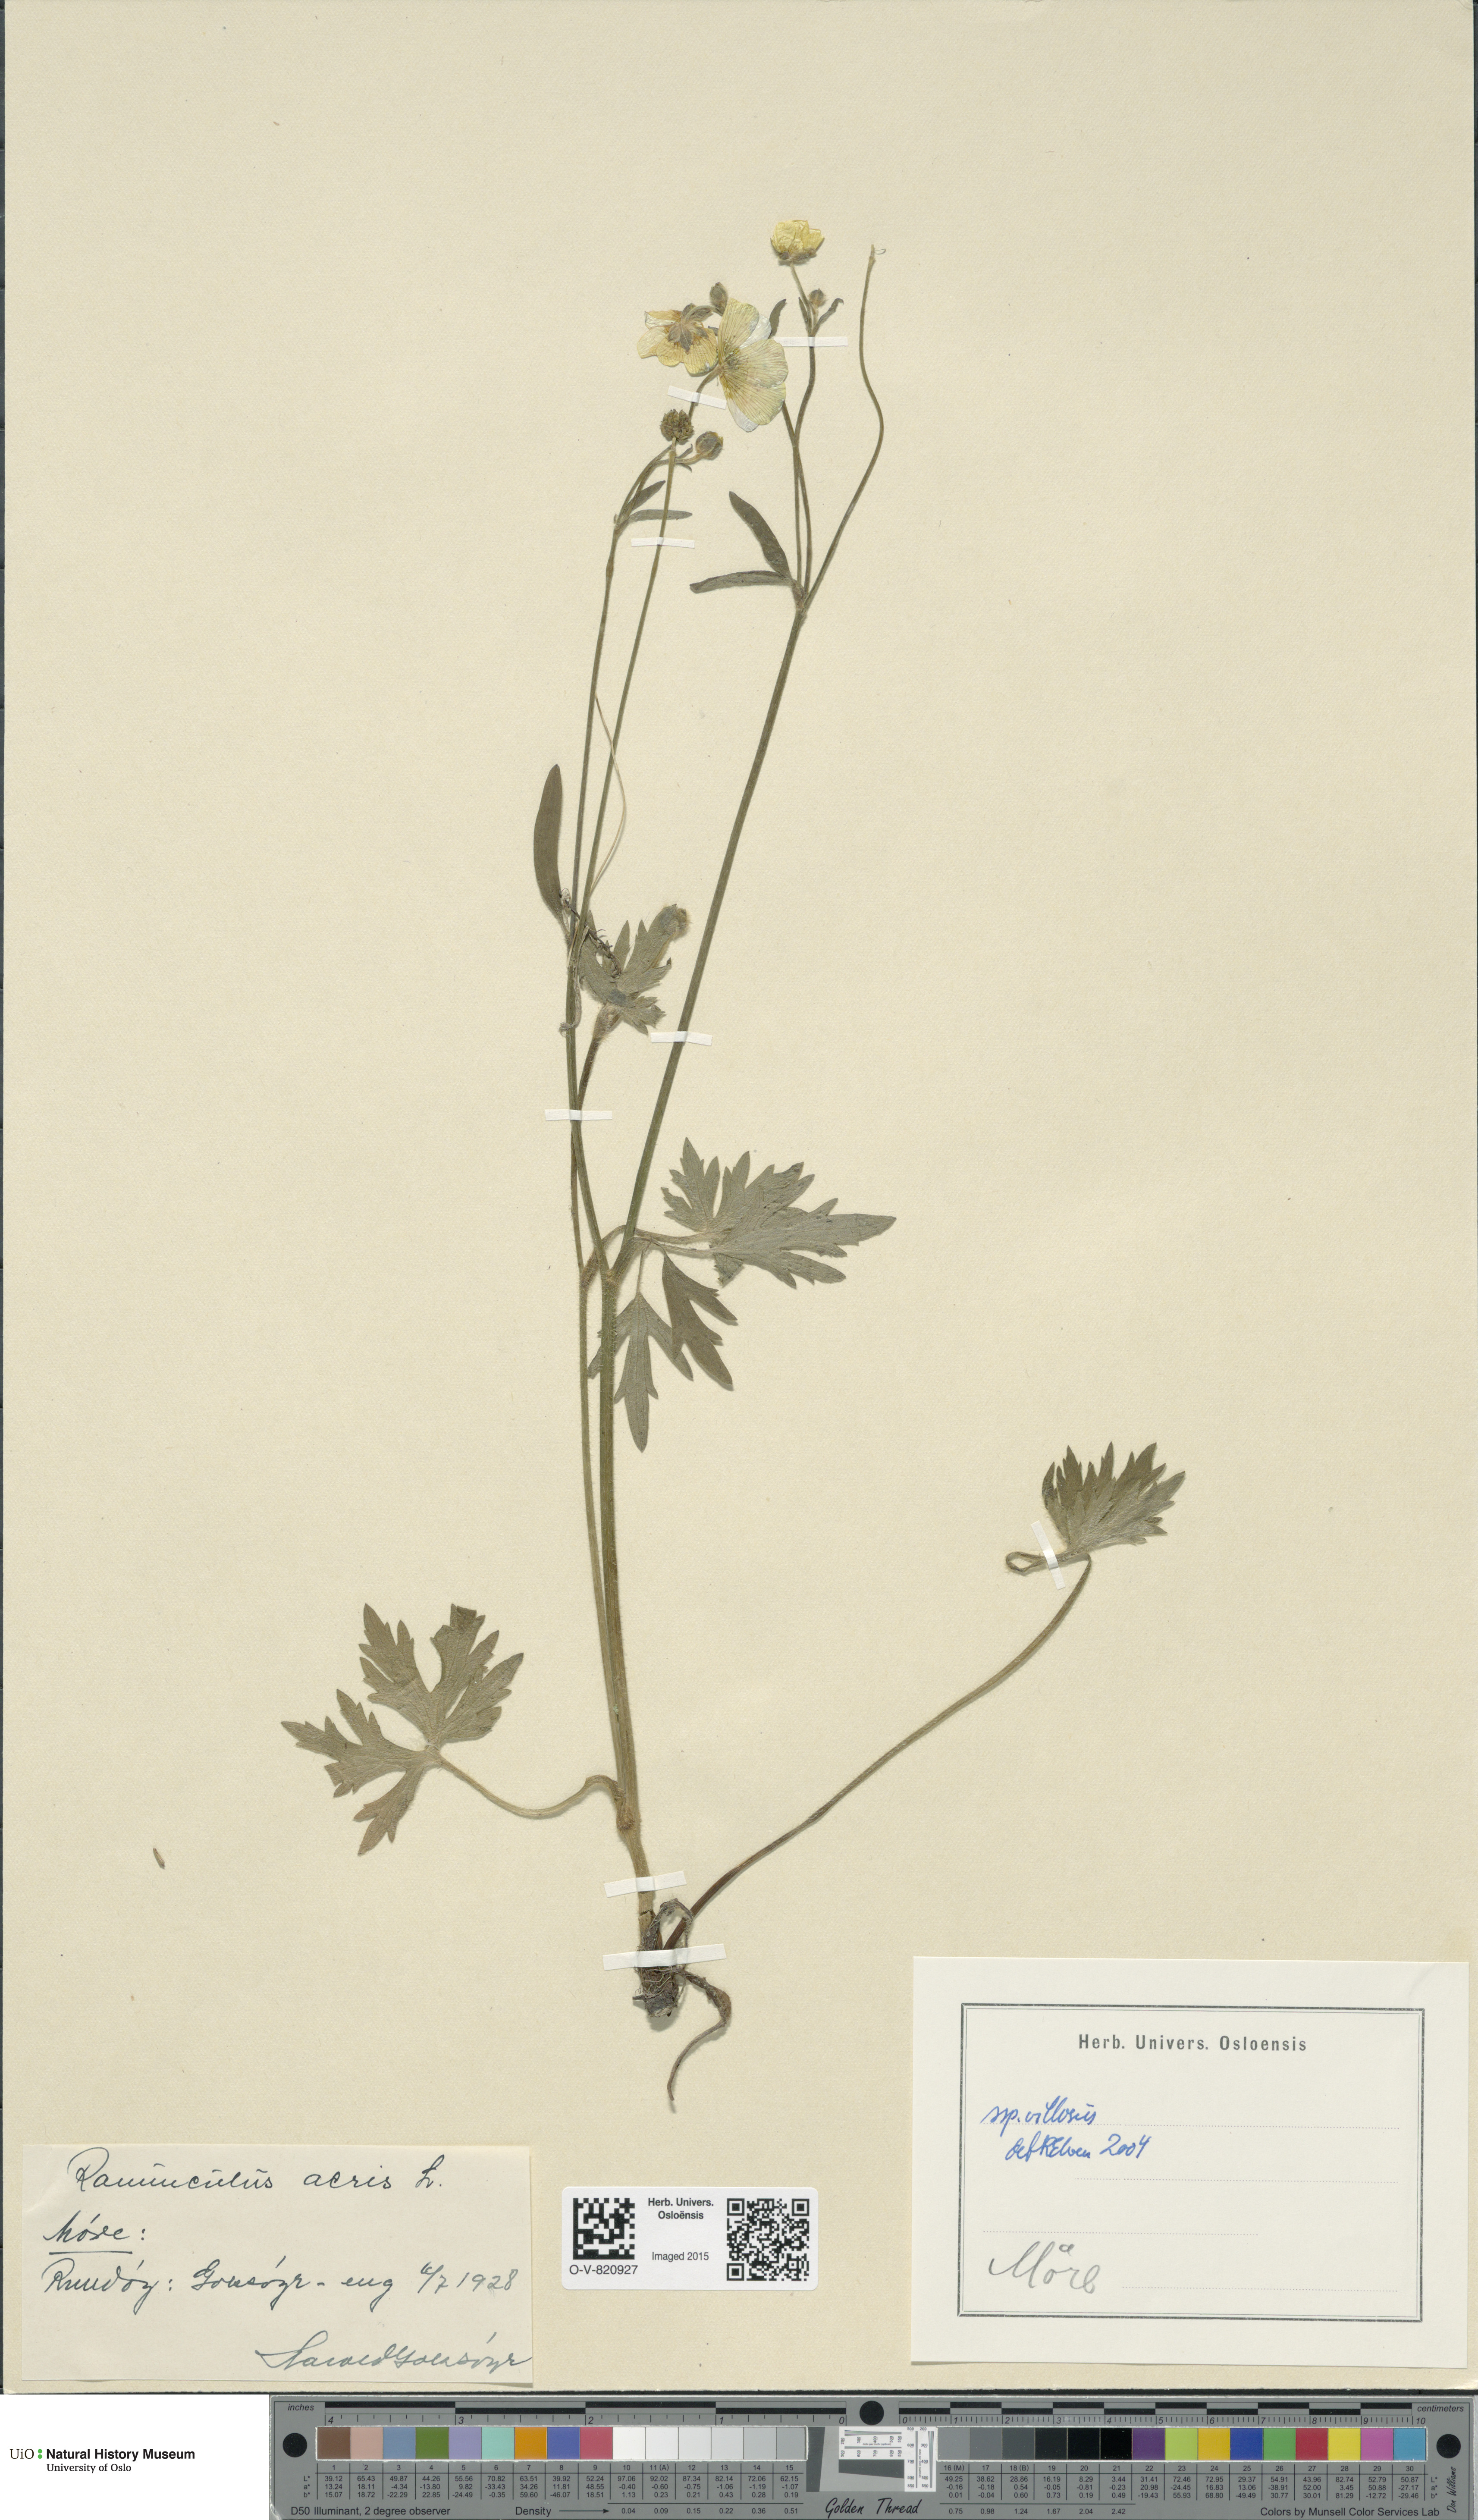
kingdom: Plantae
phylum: Tracheophyta
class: Magnoliopsida
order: Ranunculales
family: Ranunculaceae
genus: Ranunculus
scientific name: Ranunculus propinquus
